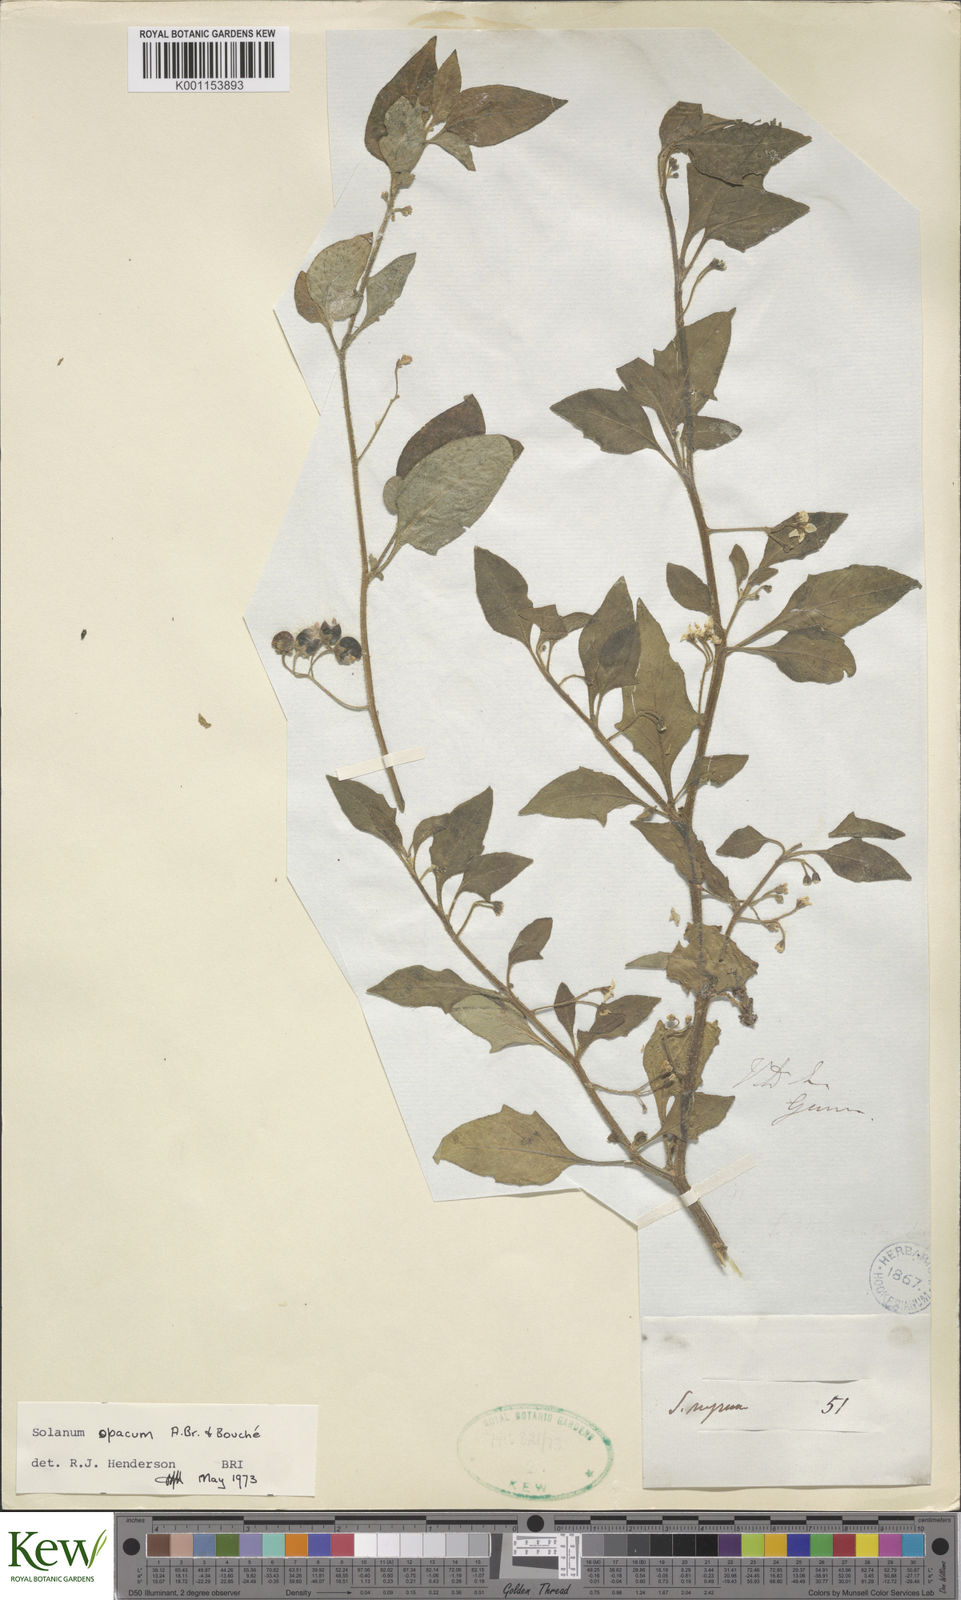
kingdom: Plantae
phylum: Tracheophyta
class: Magnoliopsida
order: Solanales
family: Solanaceae
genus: Solanum
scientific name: Solanum
